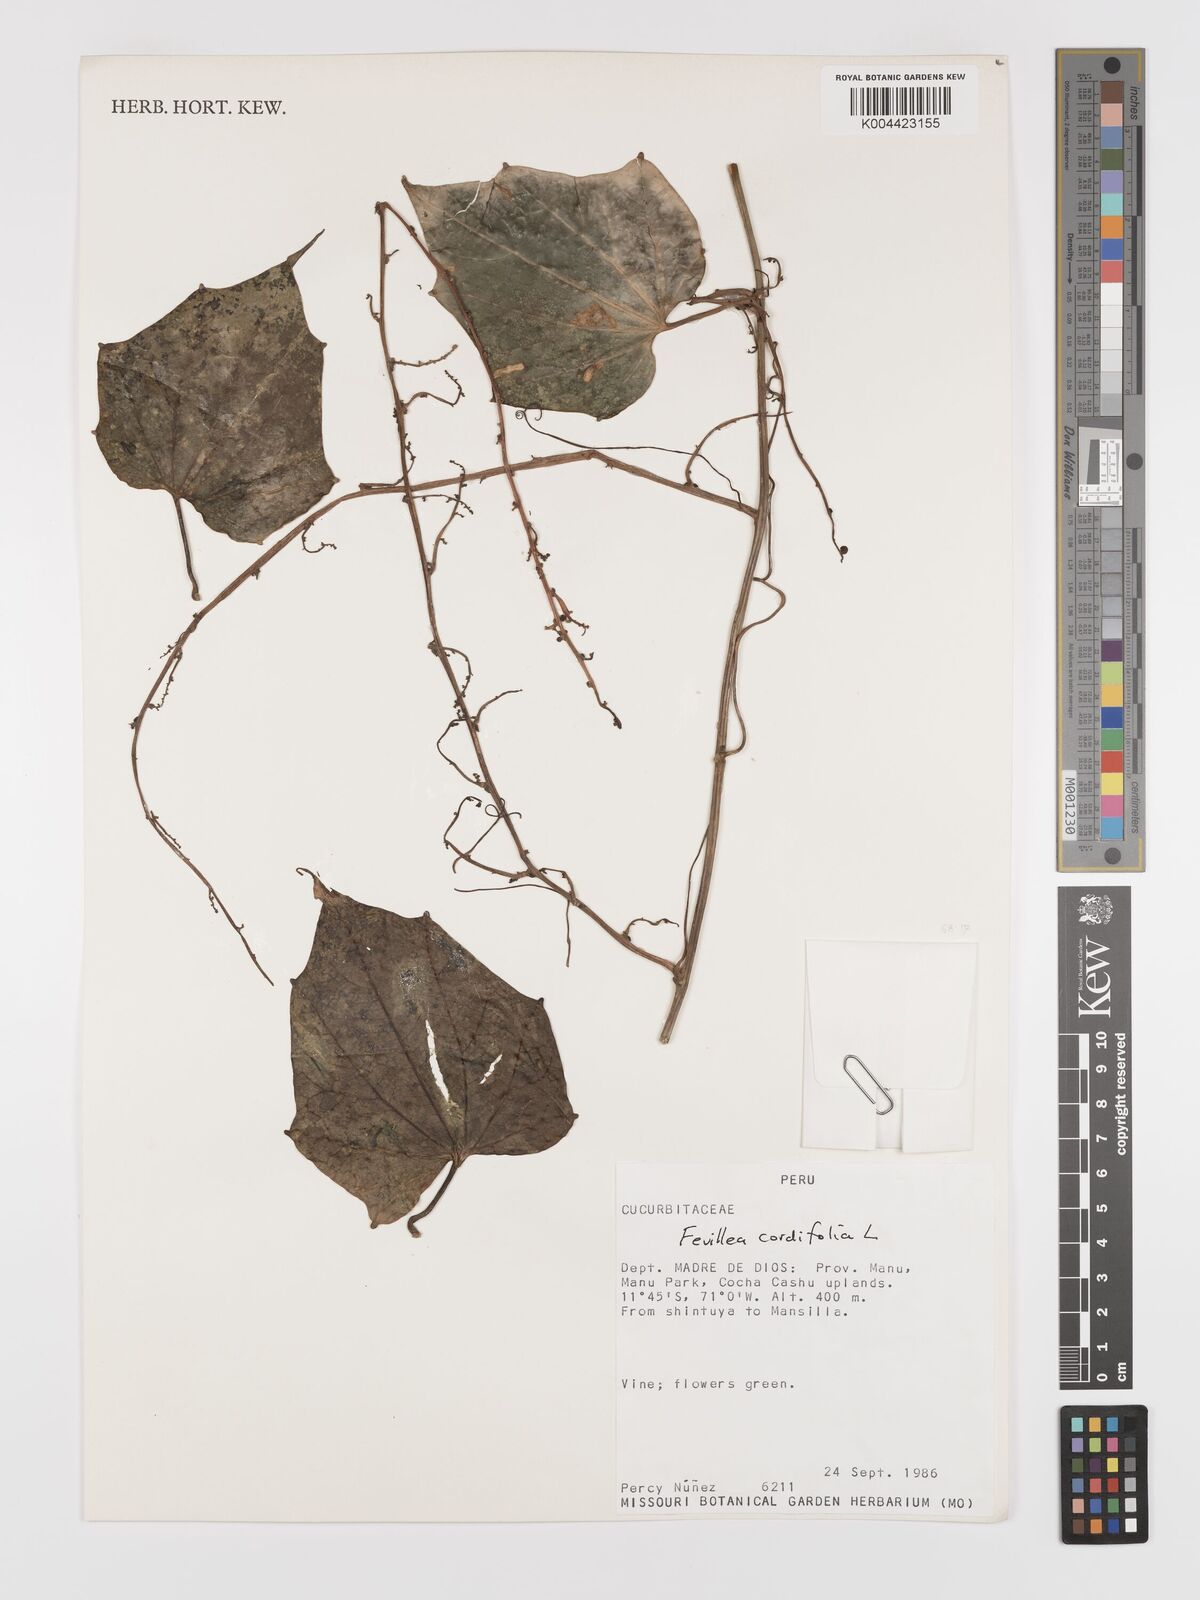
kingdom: Plantae
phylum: Tracheophyta
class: Magnoliopsida
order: Cucurbitales
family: Cucurbitaceae
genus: Fevillea
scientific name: Fevillea
